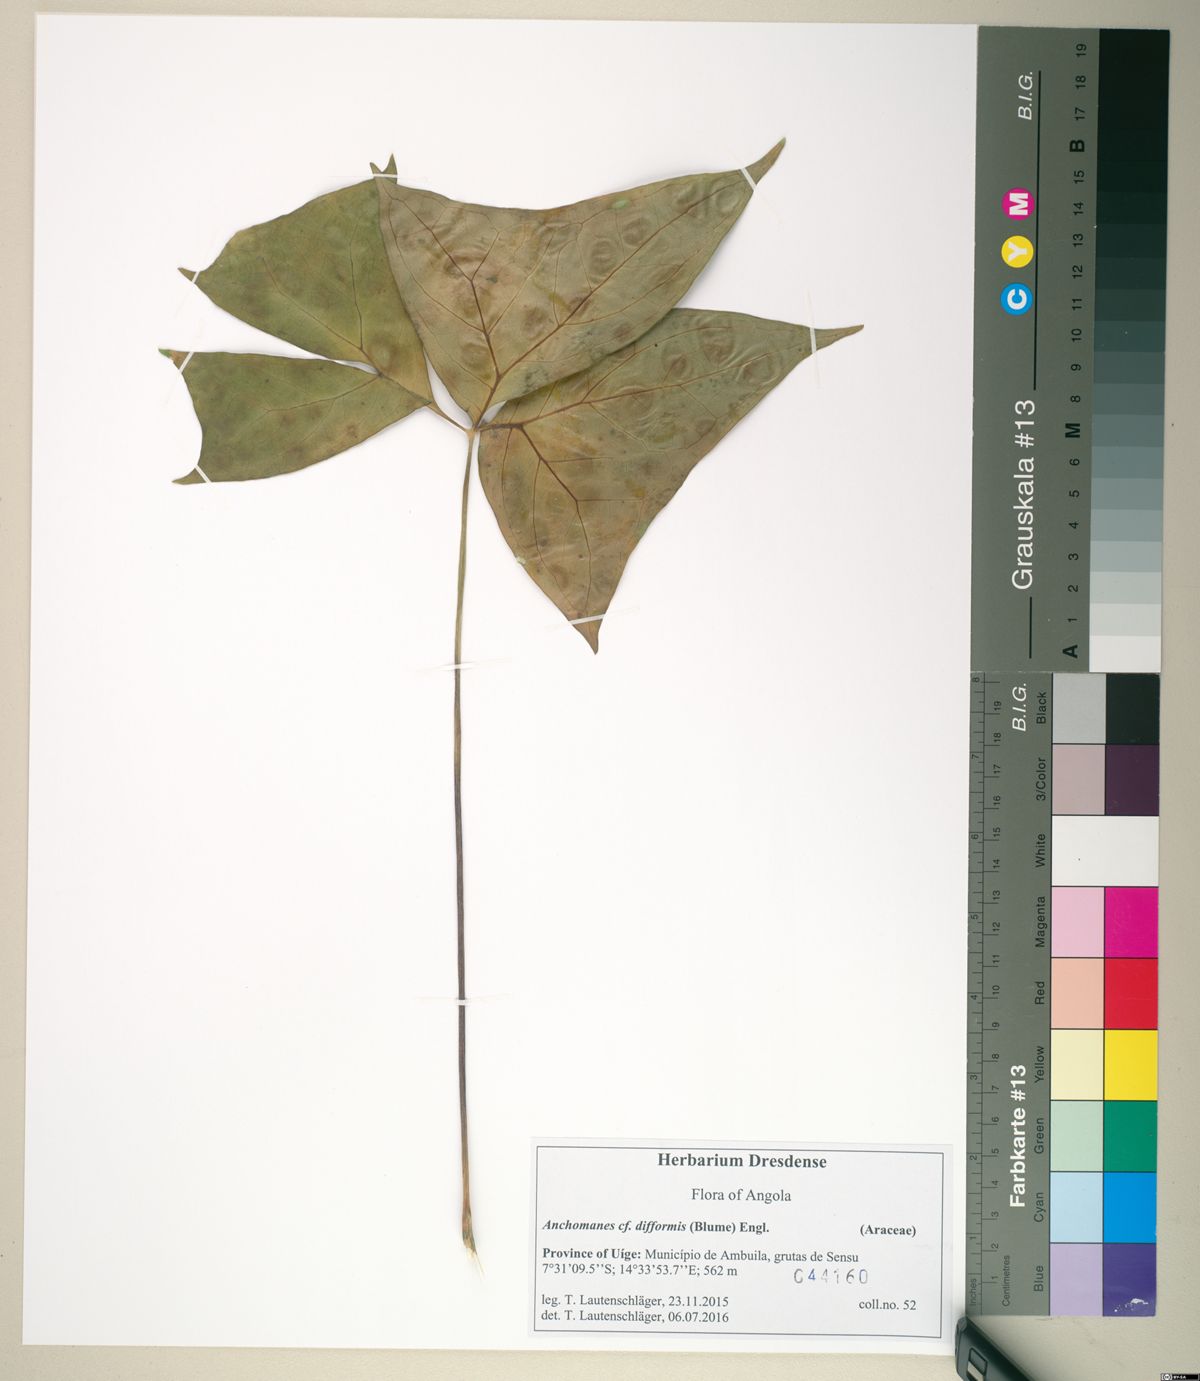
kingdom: Plantae
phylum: Tracheophyta
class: Liliopsida
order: Alismatales
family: Araceae
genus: Anchomanes
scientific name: Anchomanes difformis
